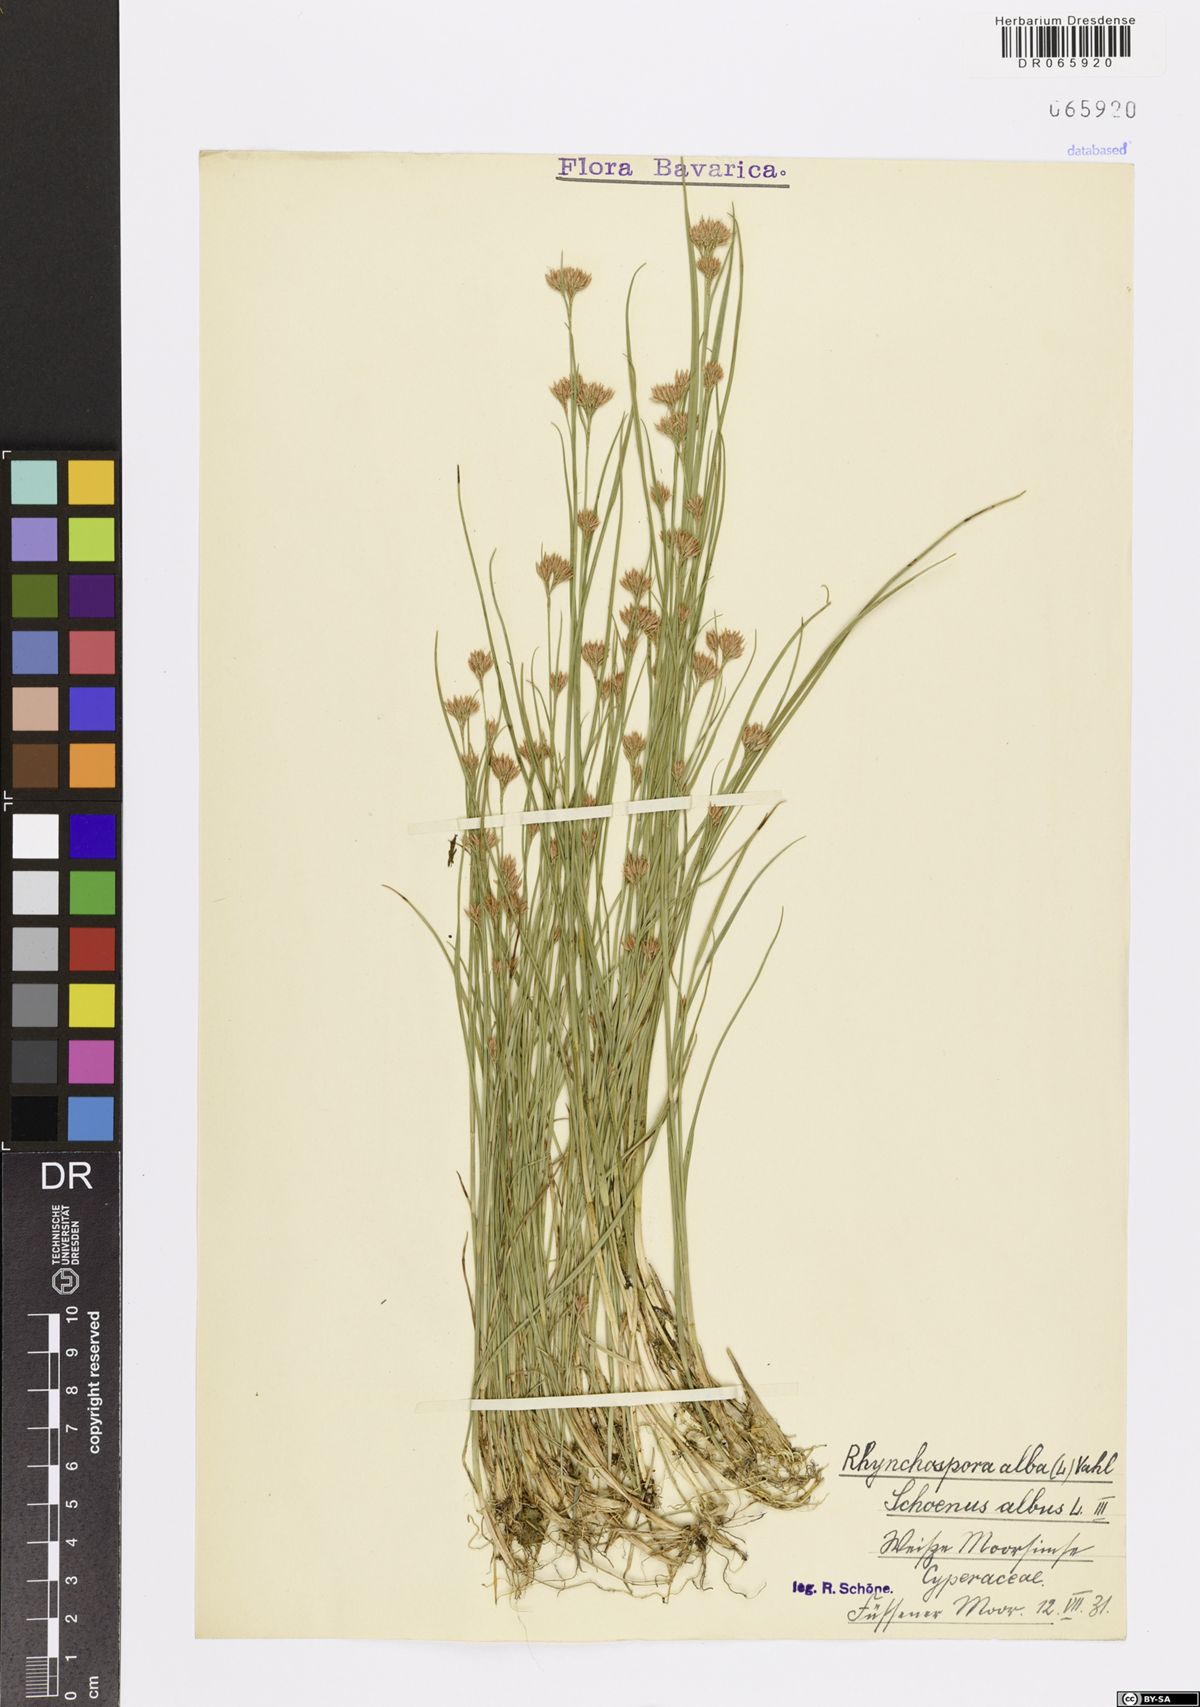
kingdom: Plantae
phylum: Tracheophyta
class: Liliopsida
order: Poales
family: Cyperaceae
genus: Rhynchospora
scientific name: Rhynchospora alba
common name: White beak-sedge
